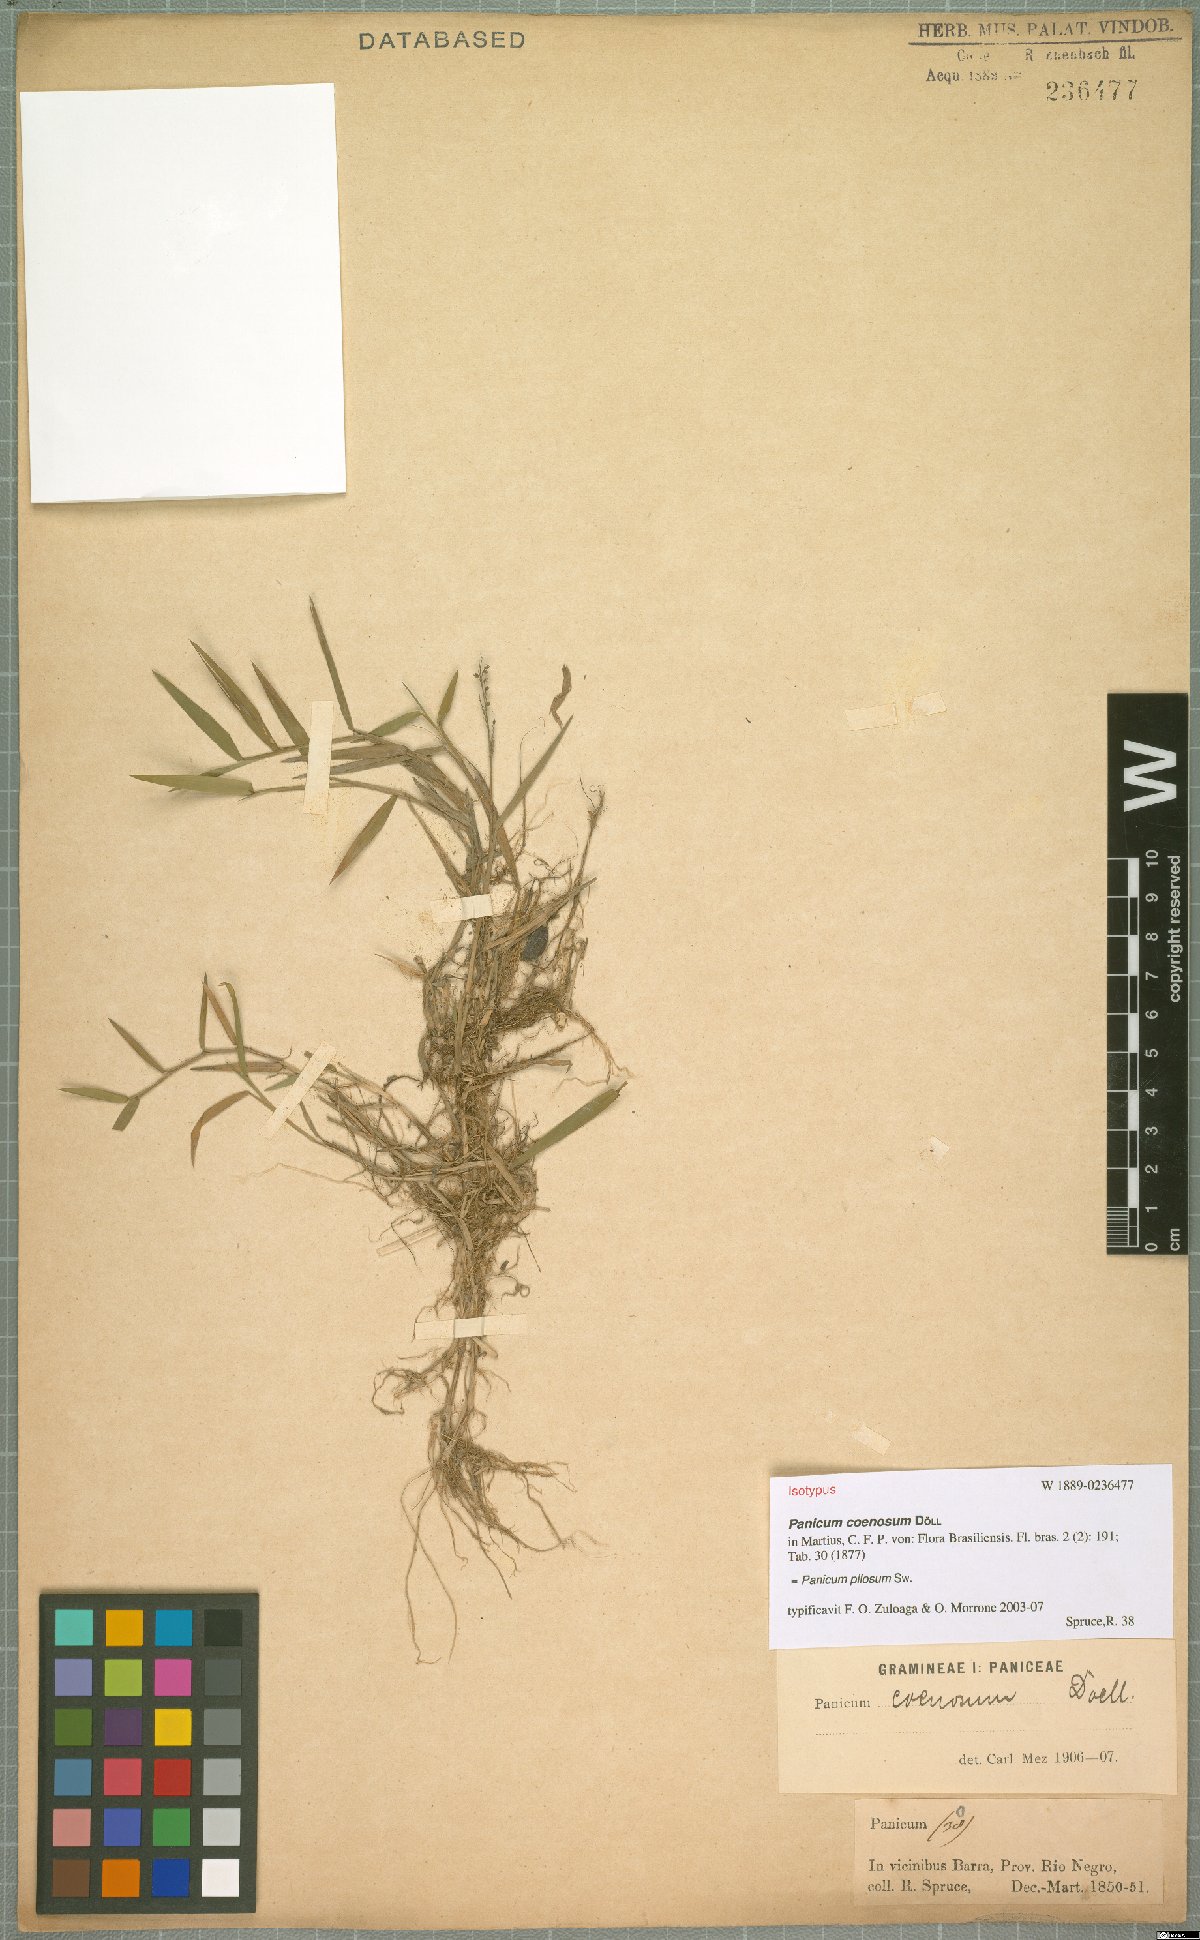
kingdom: Plantae
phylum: Tracheophyta
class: Liliopsida
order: Poales
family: Poaceae
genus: Rugoloa
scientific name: Rugoloa pilosa
